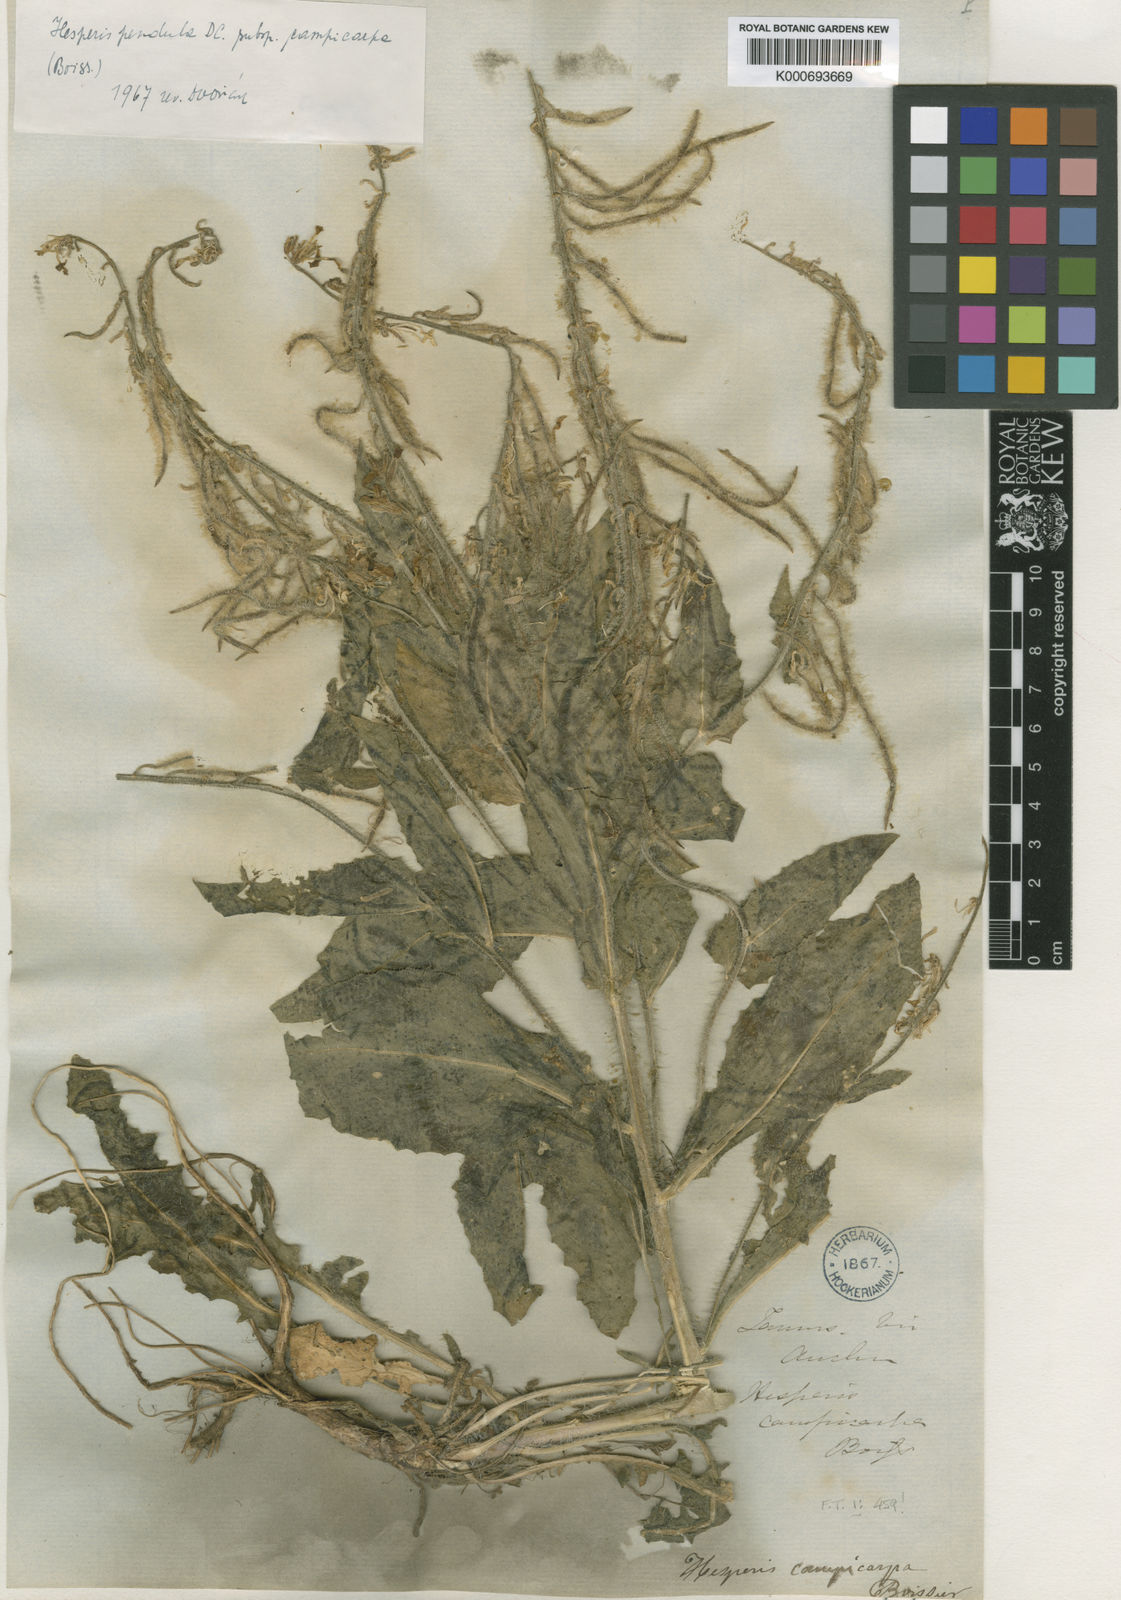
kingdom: Plantae
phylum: Tracheophyta
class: Magnoliopsida
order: Brassicales
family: Brassicaceae
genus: Hesperis
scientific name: Hesperis pendula
